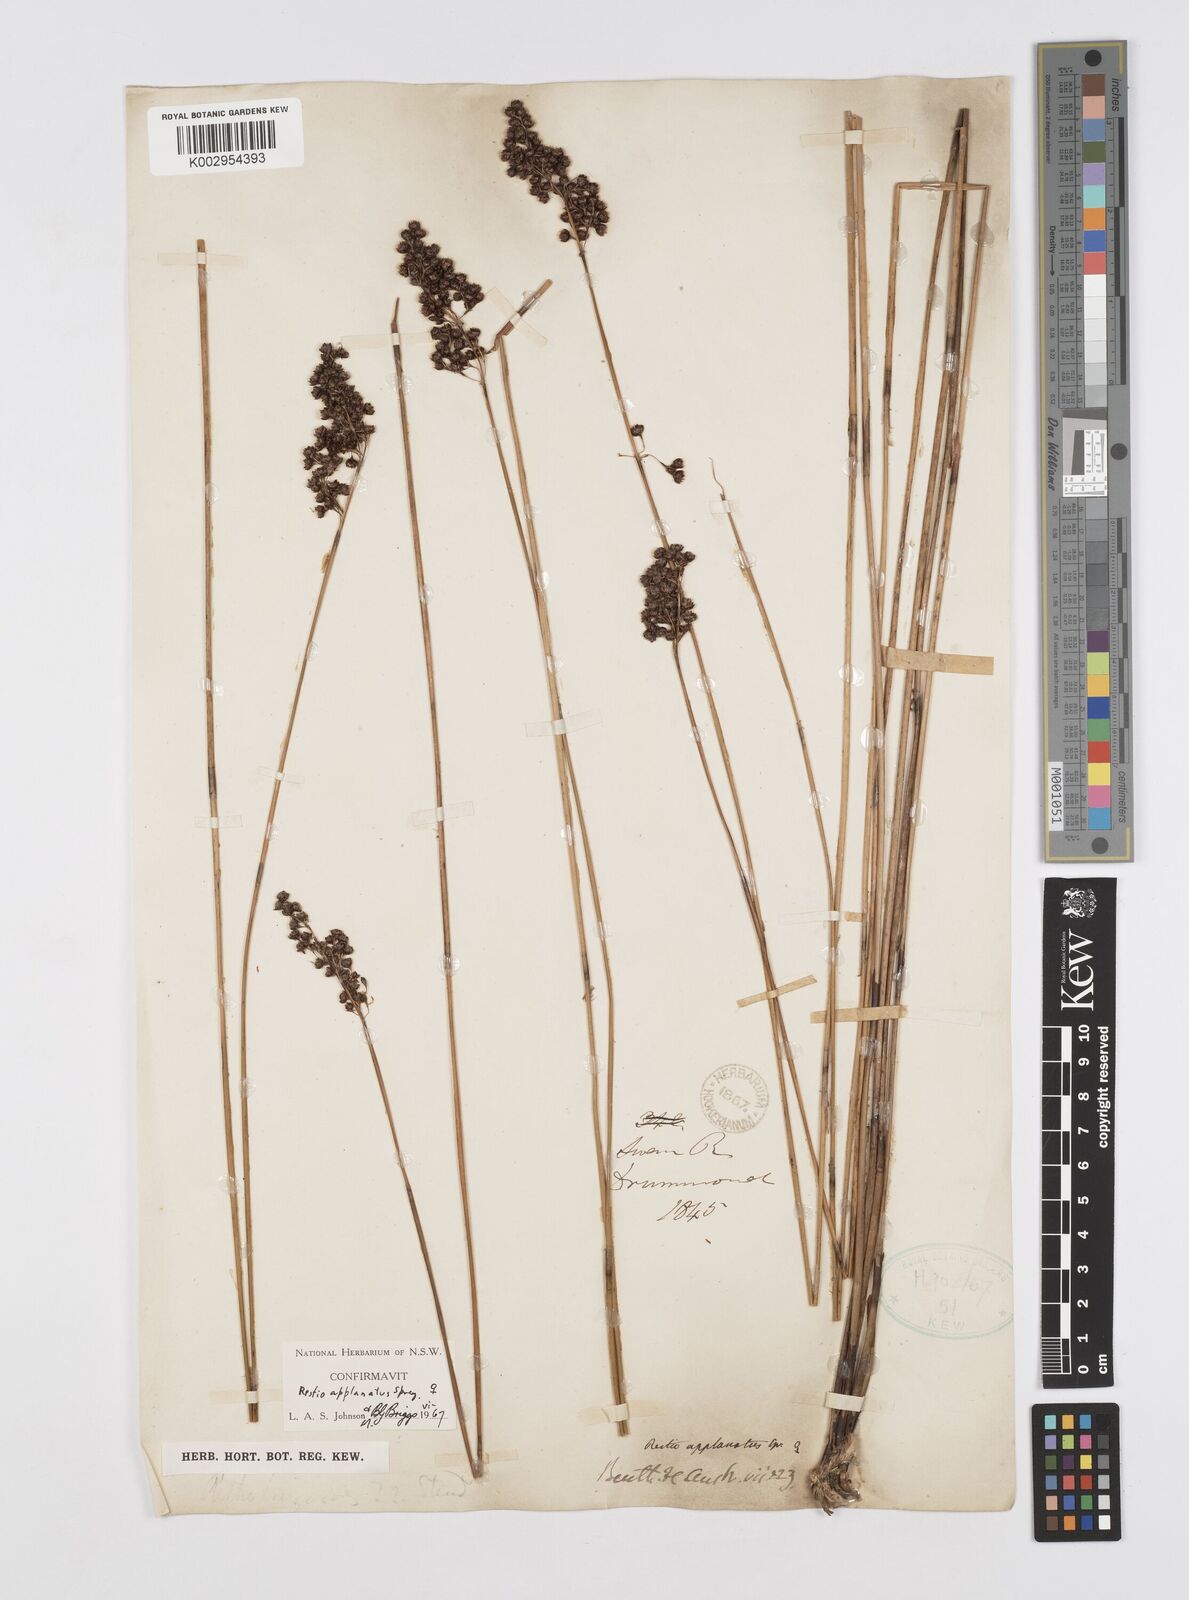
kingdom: Plantae
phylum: Tracheophyta
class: Liliopsida
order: Poales
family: Restionaceae
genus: Platychorda
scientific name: Platychorda applanata
